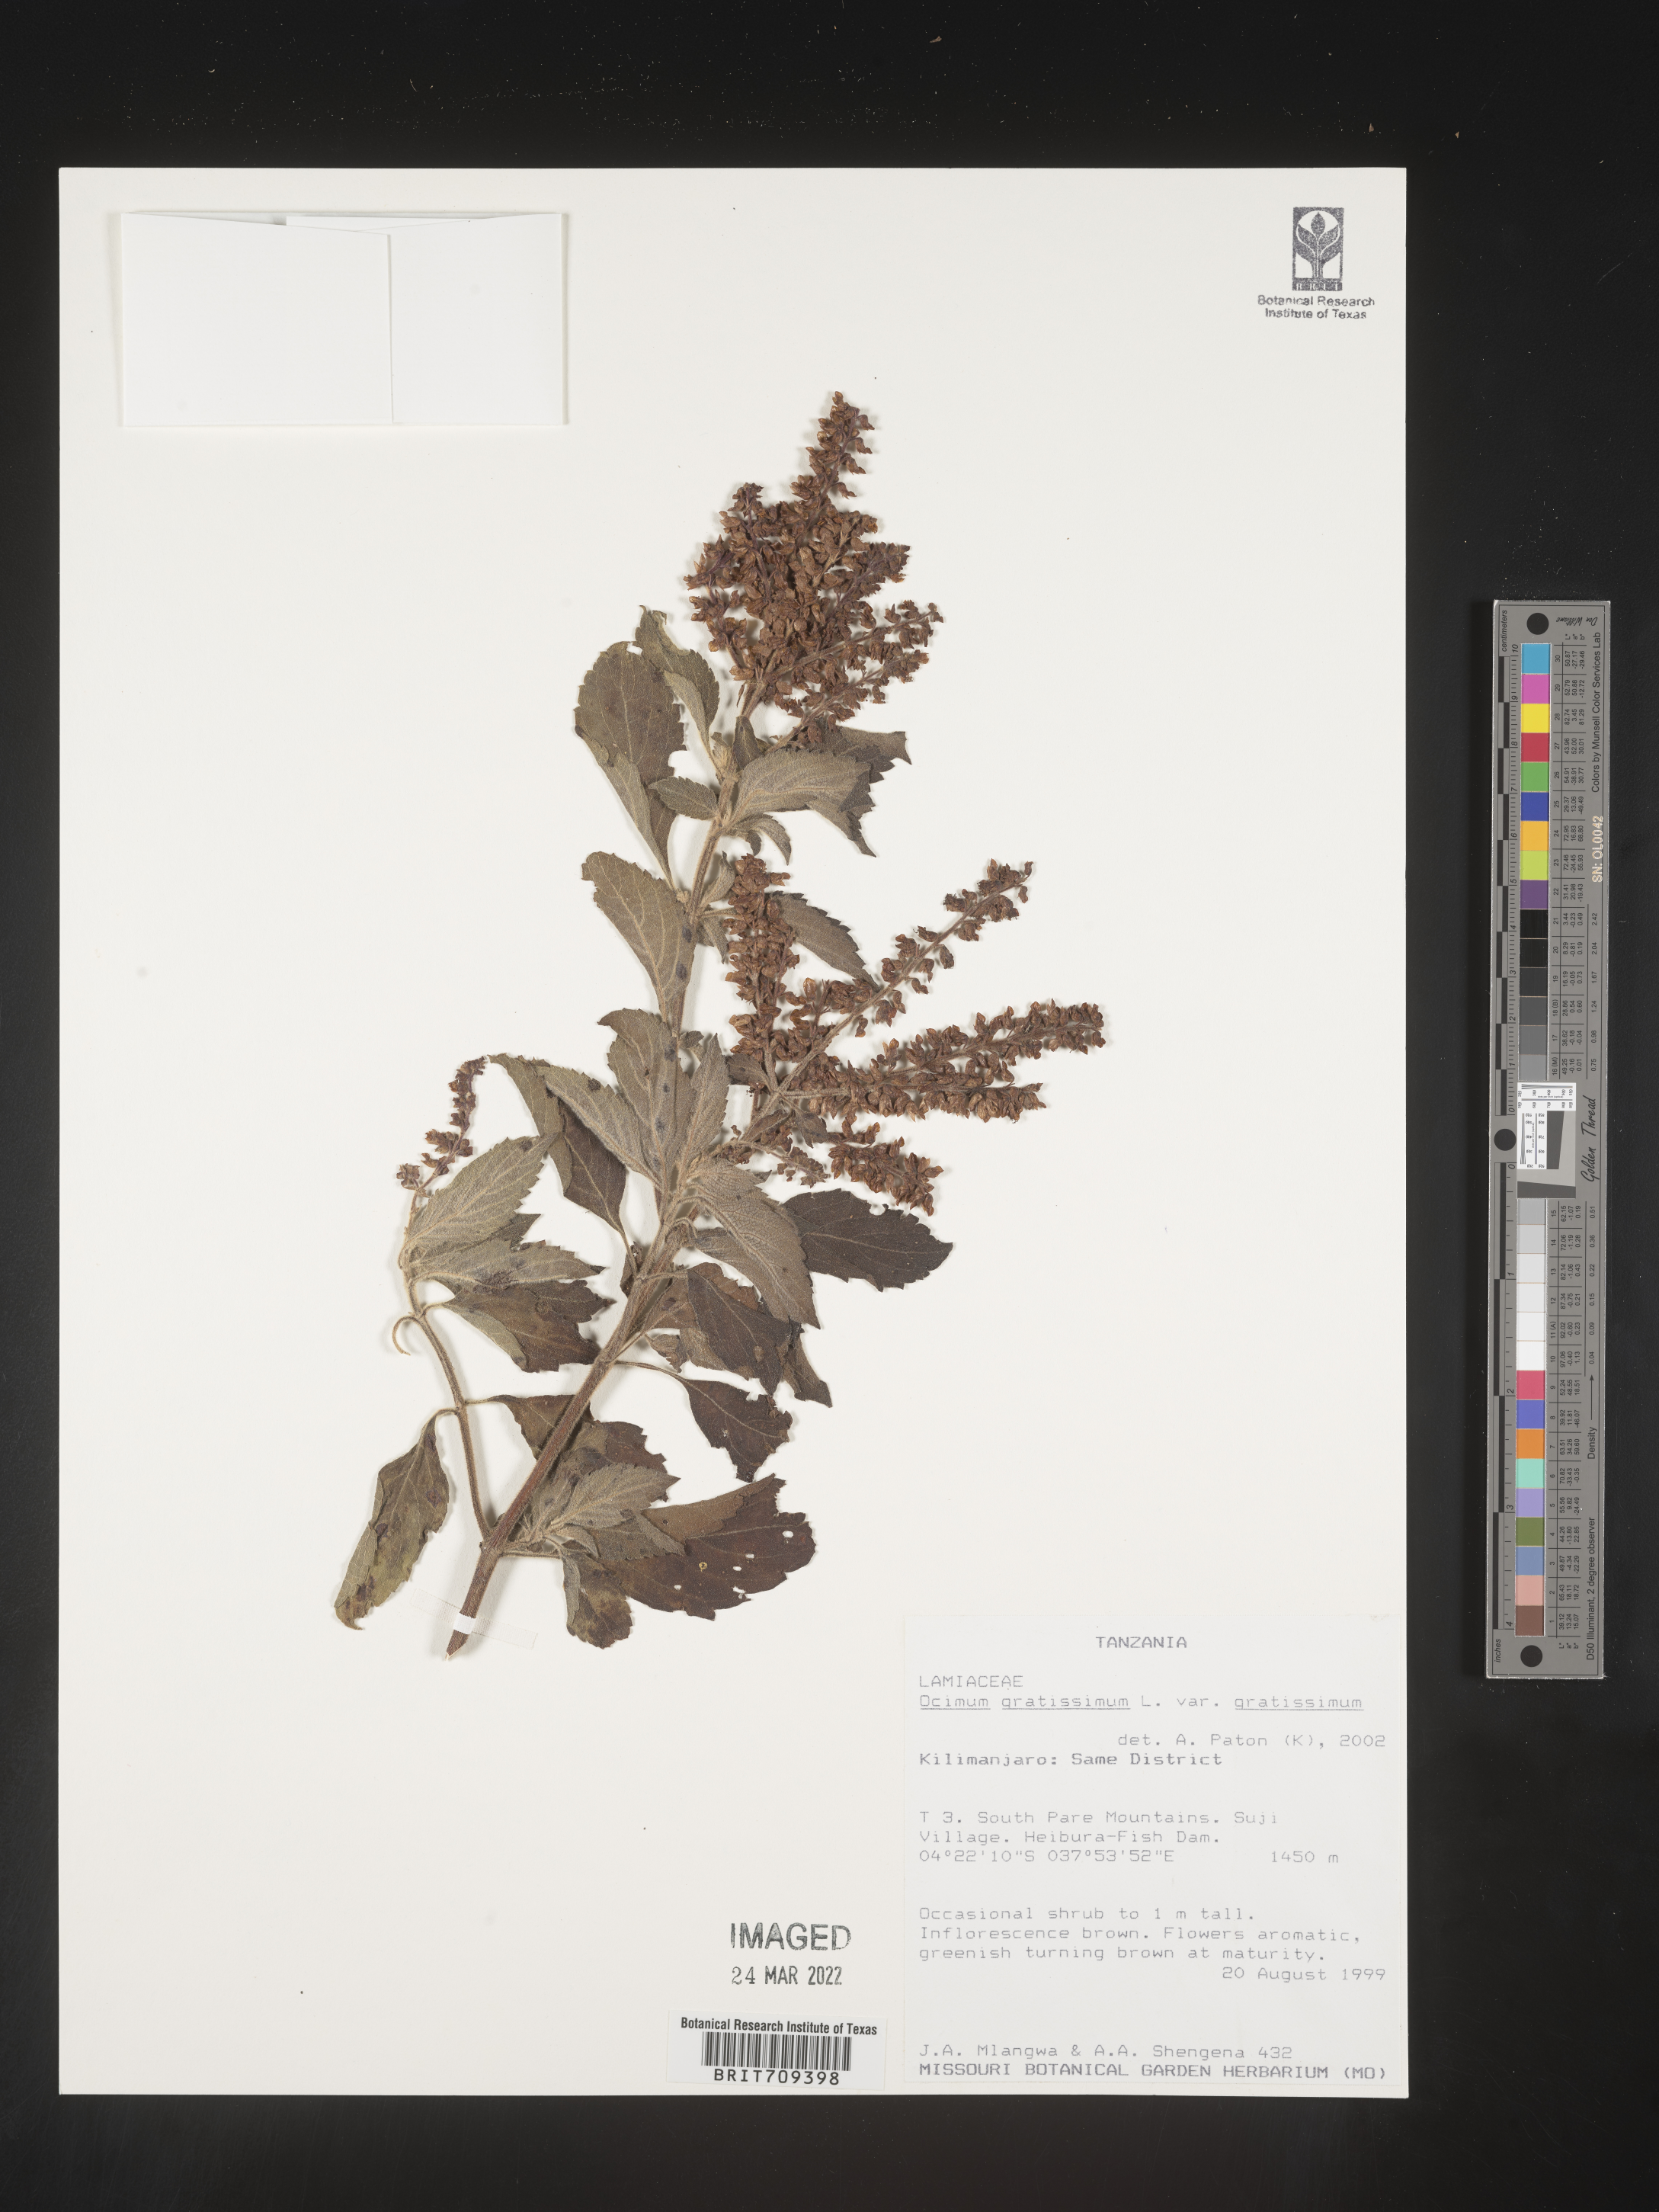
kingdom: Plantae
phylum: Tracheophyta
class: Magnoliopsida
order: Lamiales
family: Lamiaceae
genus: Ocimum
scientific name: Ocimum
